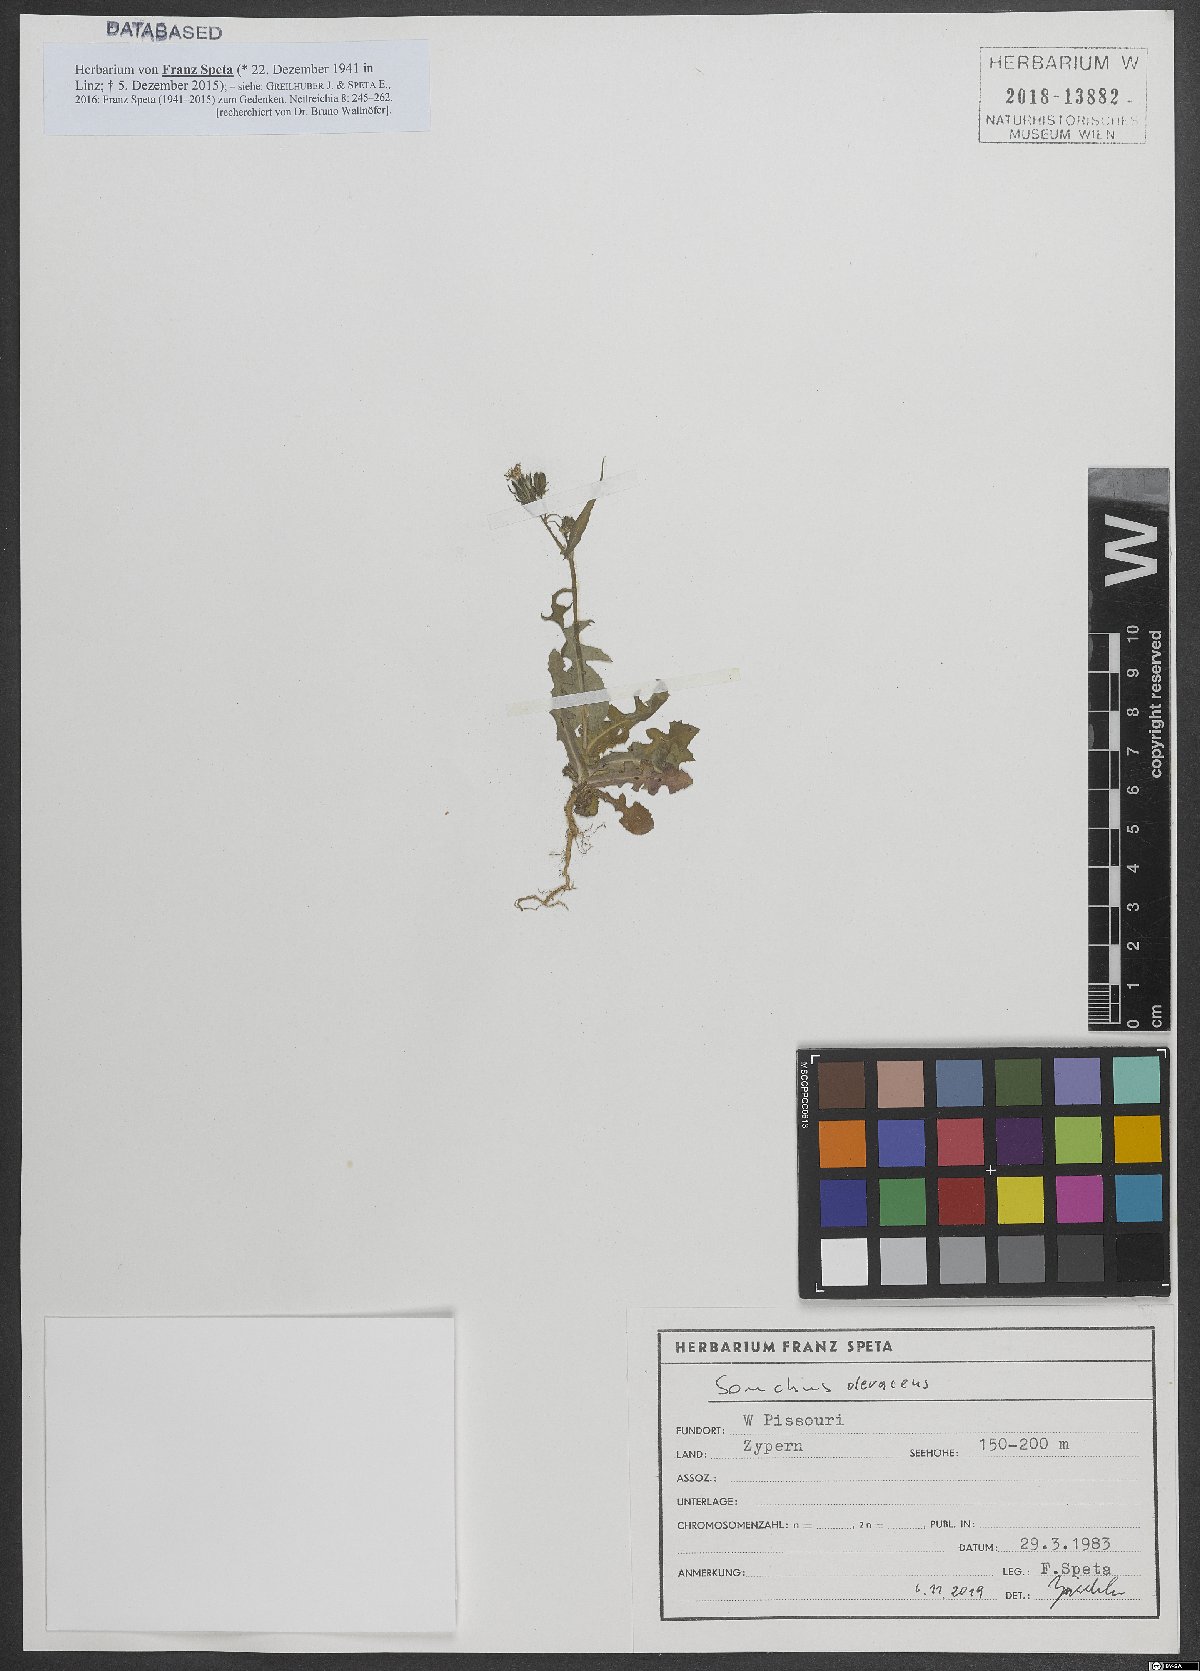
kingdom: Plantae
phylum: Tracheophyta
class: Magnoliopsida
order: Asterales
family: Asteraceae
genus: Sonchus
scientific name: Sonchus oleraceus
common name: Common sowthistle
